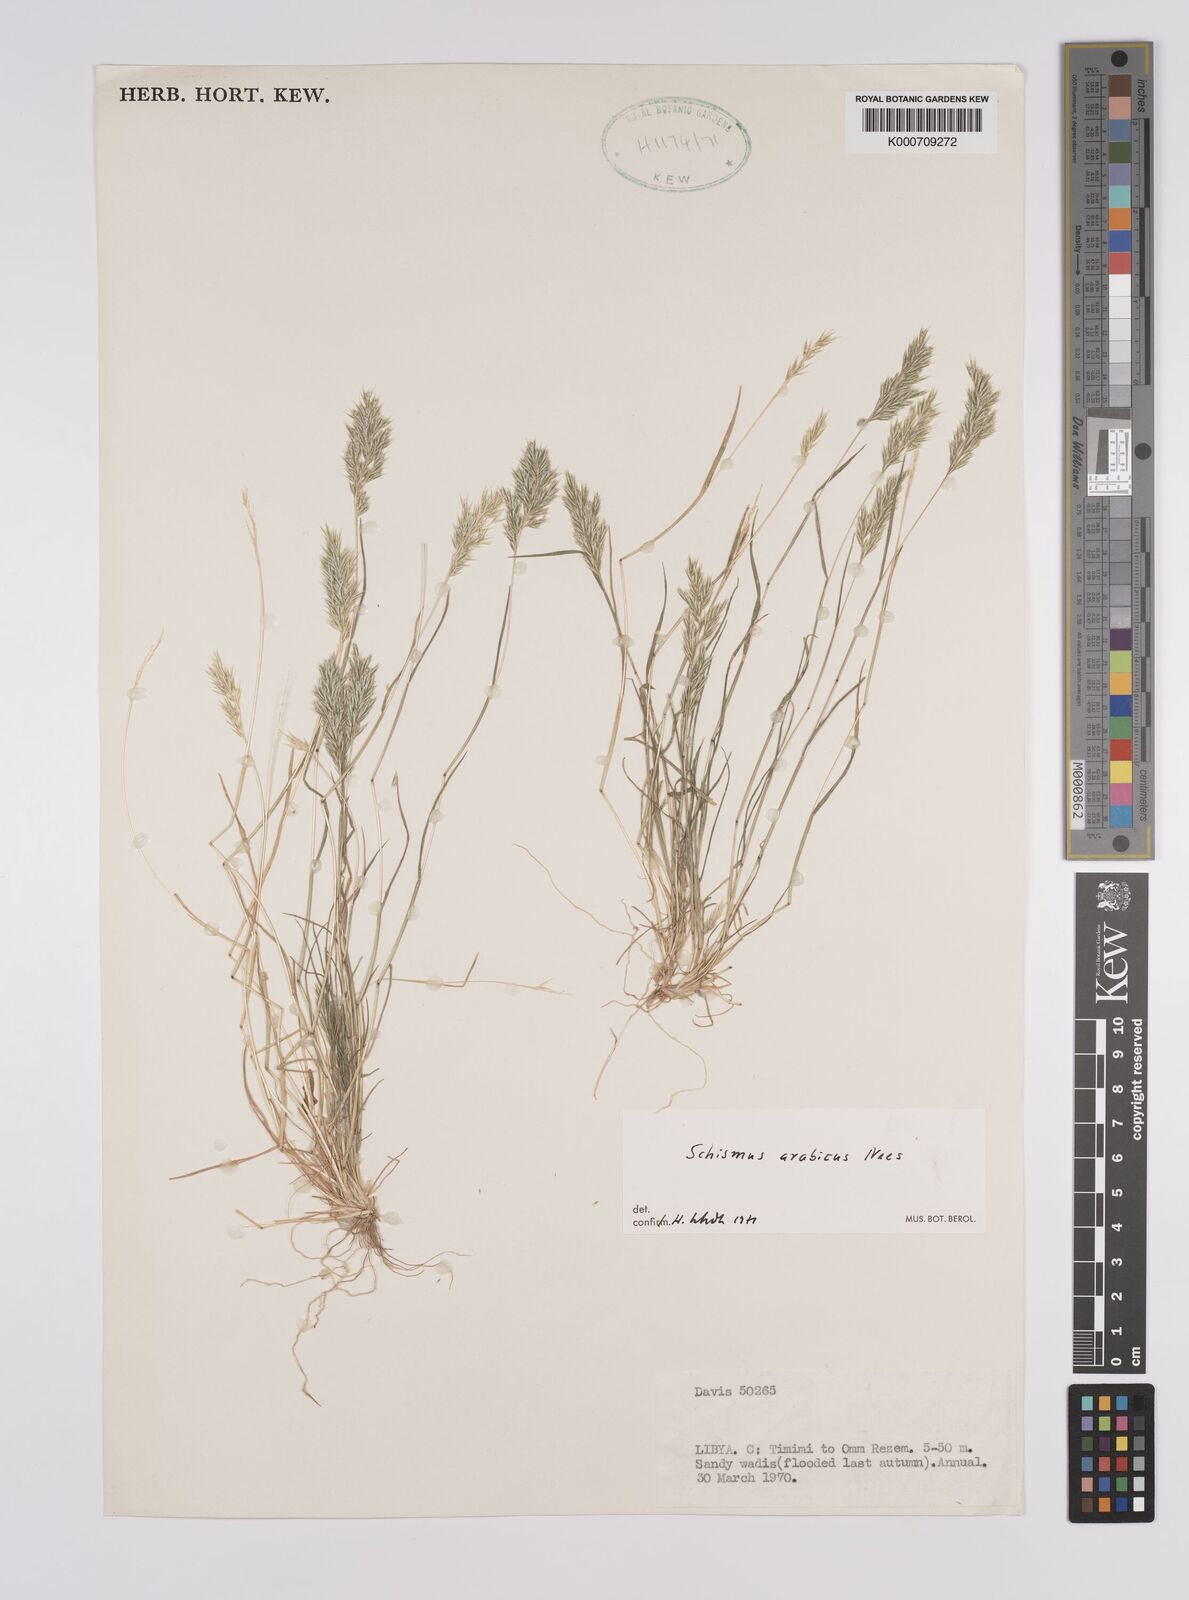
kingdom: Plantae
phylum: Tracheophyta
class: Liliopsida
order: Poales
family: Poaceae
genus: Schismus
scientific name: Schismus arabicus
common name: Arabian schismus
